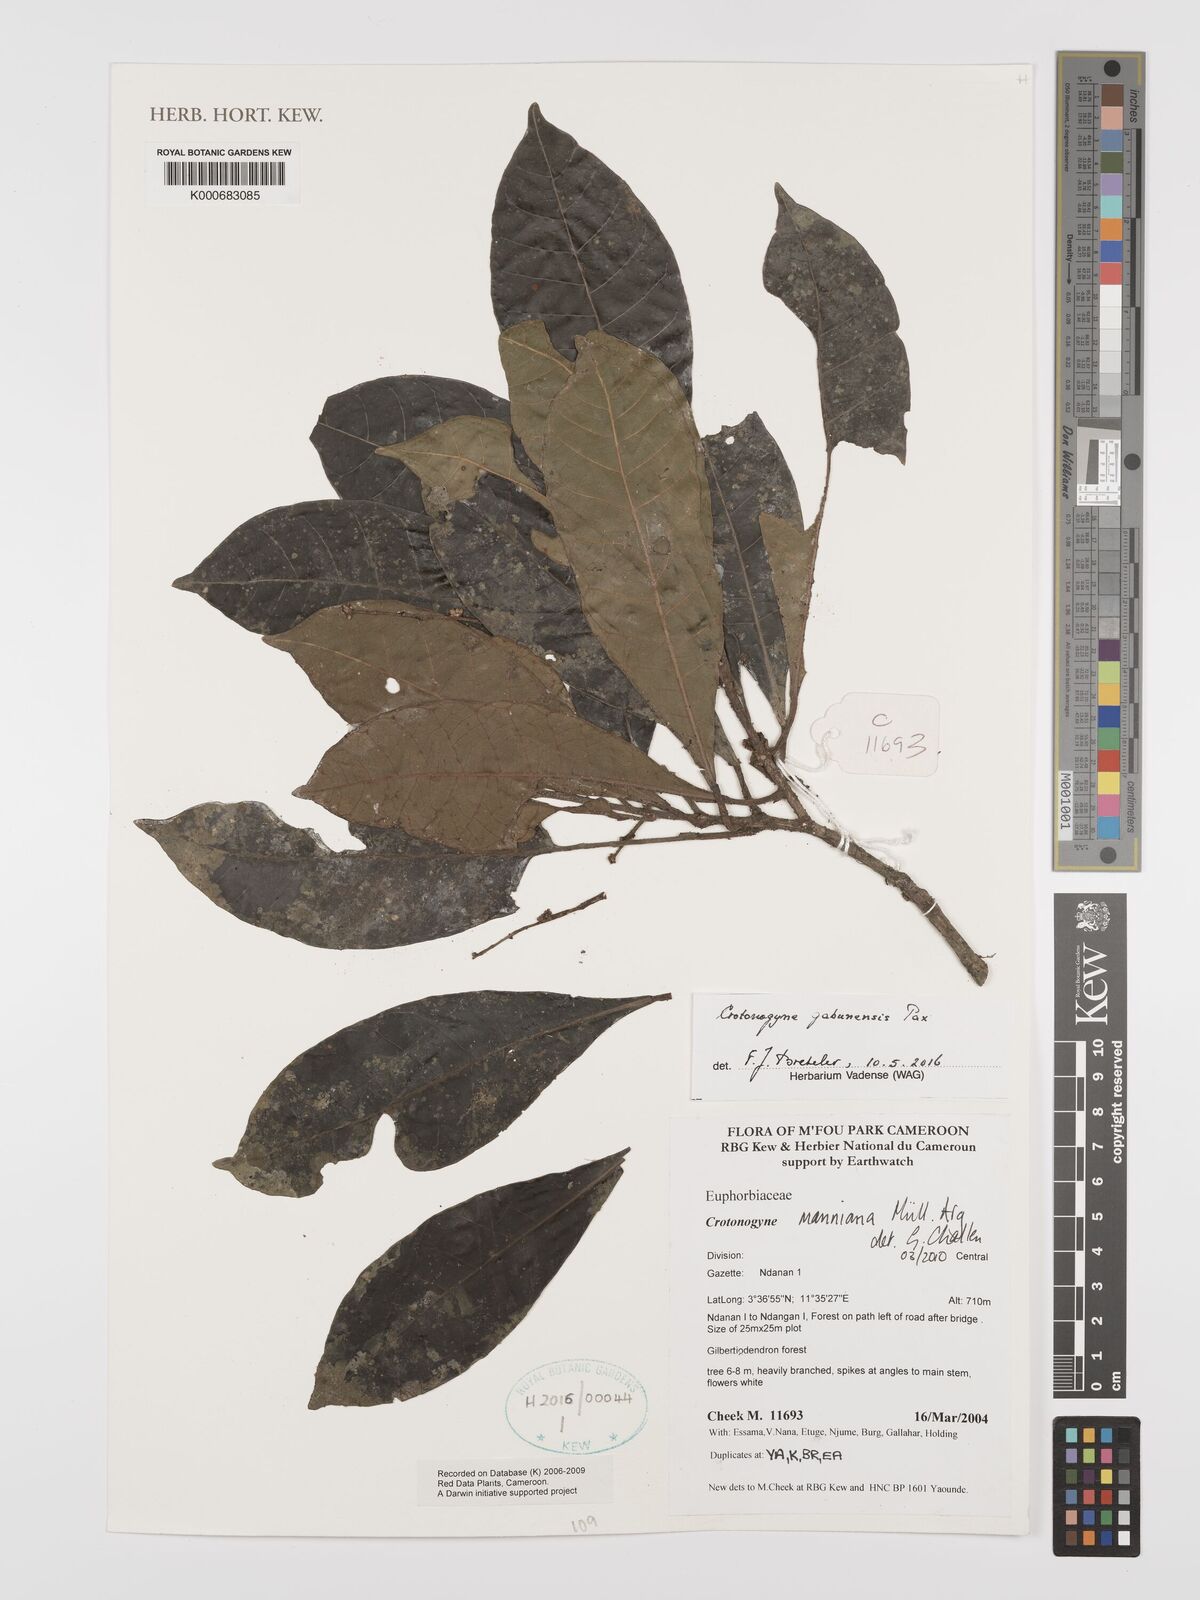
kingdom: Plantae
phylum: Tracheophyta
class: Magnoliopsida
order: Malpighiales
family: Euphorbiaceae
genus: Crotonogyne
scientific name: Crotonogyne
